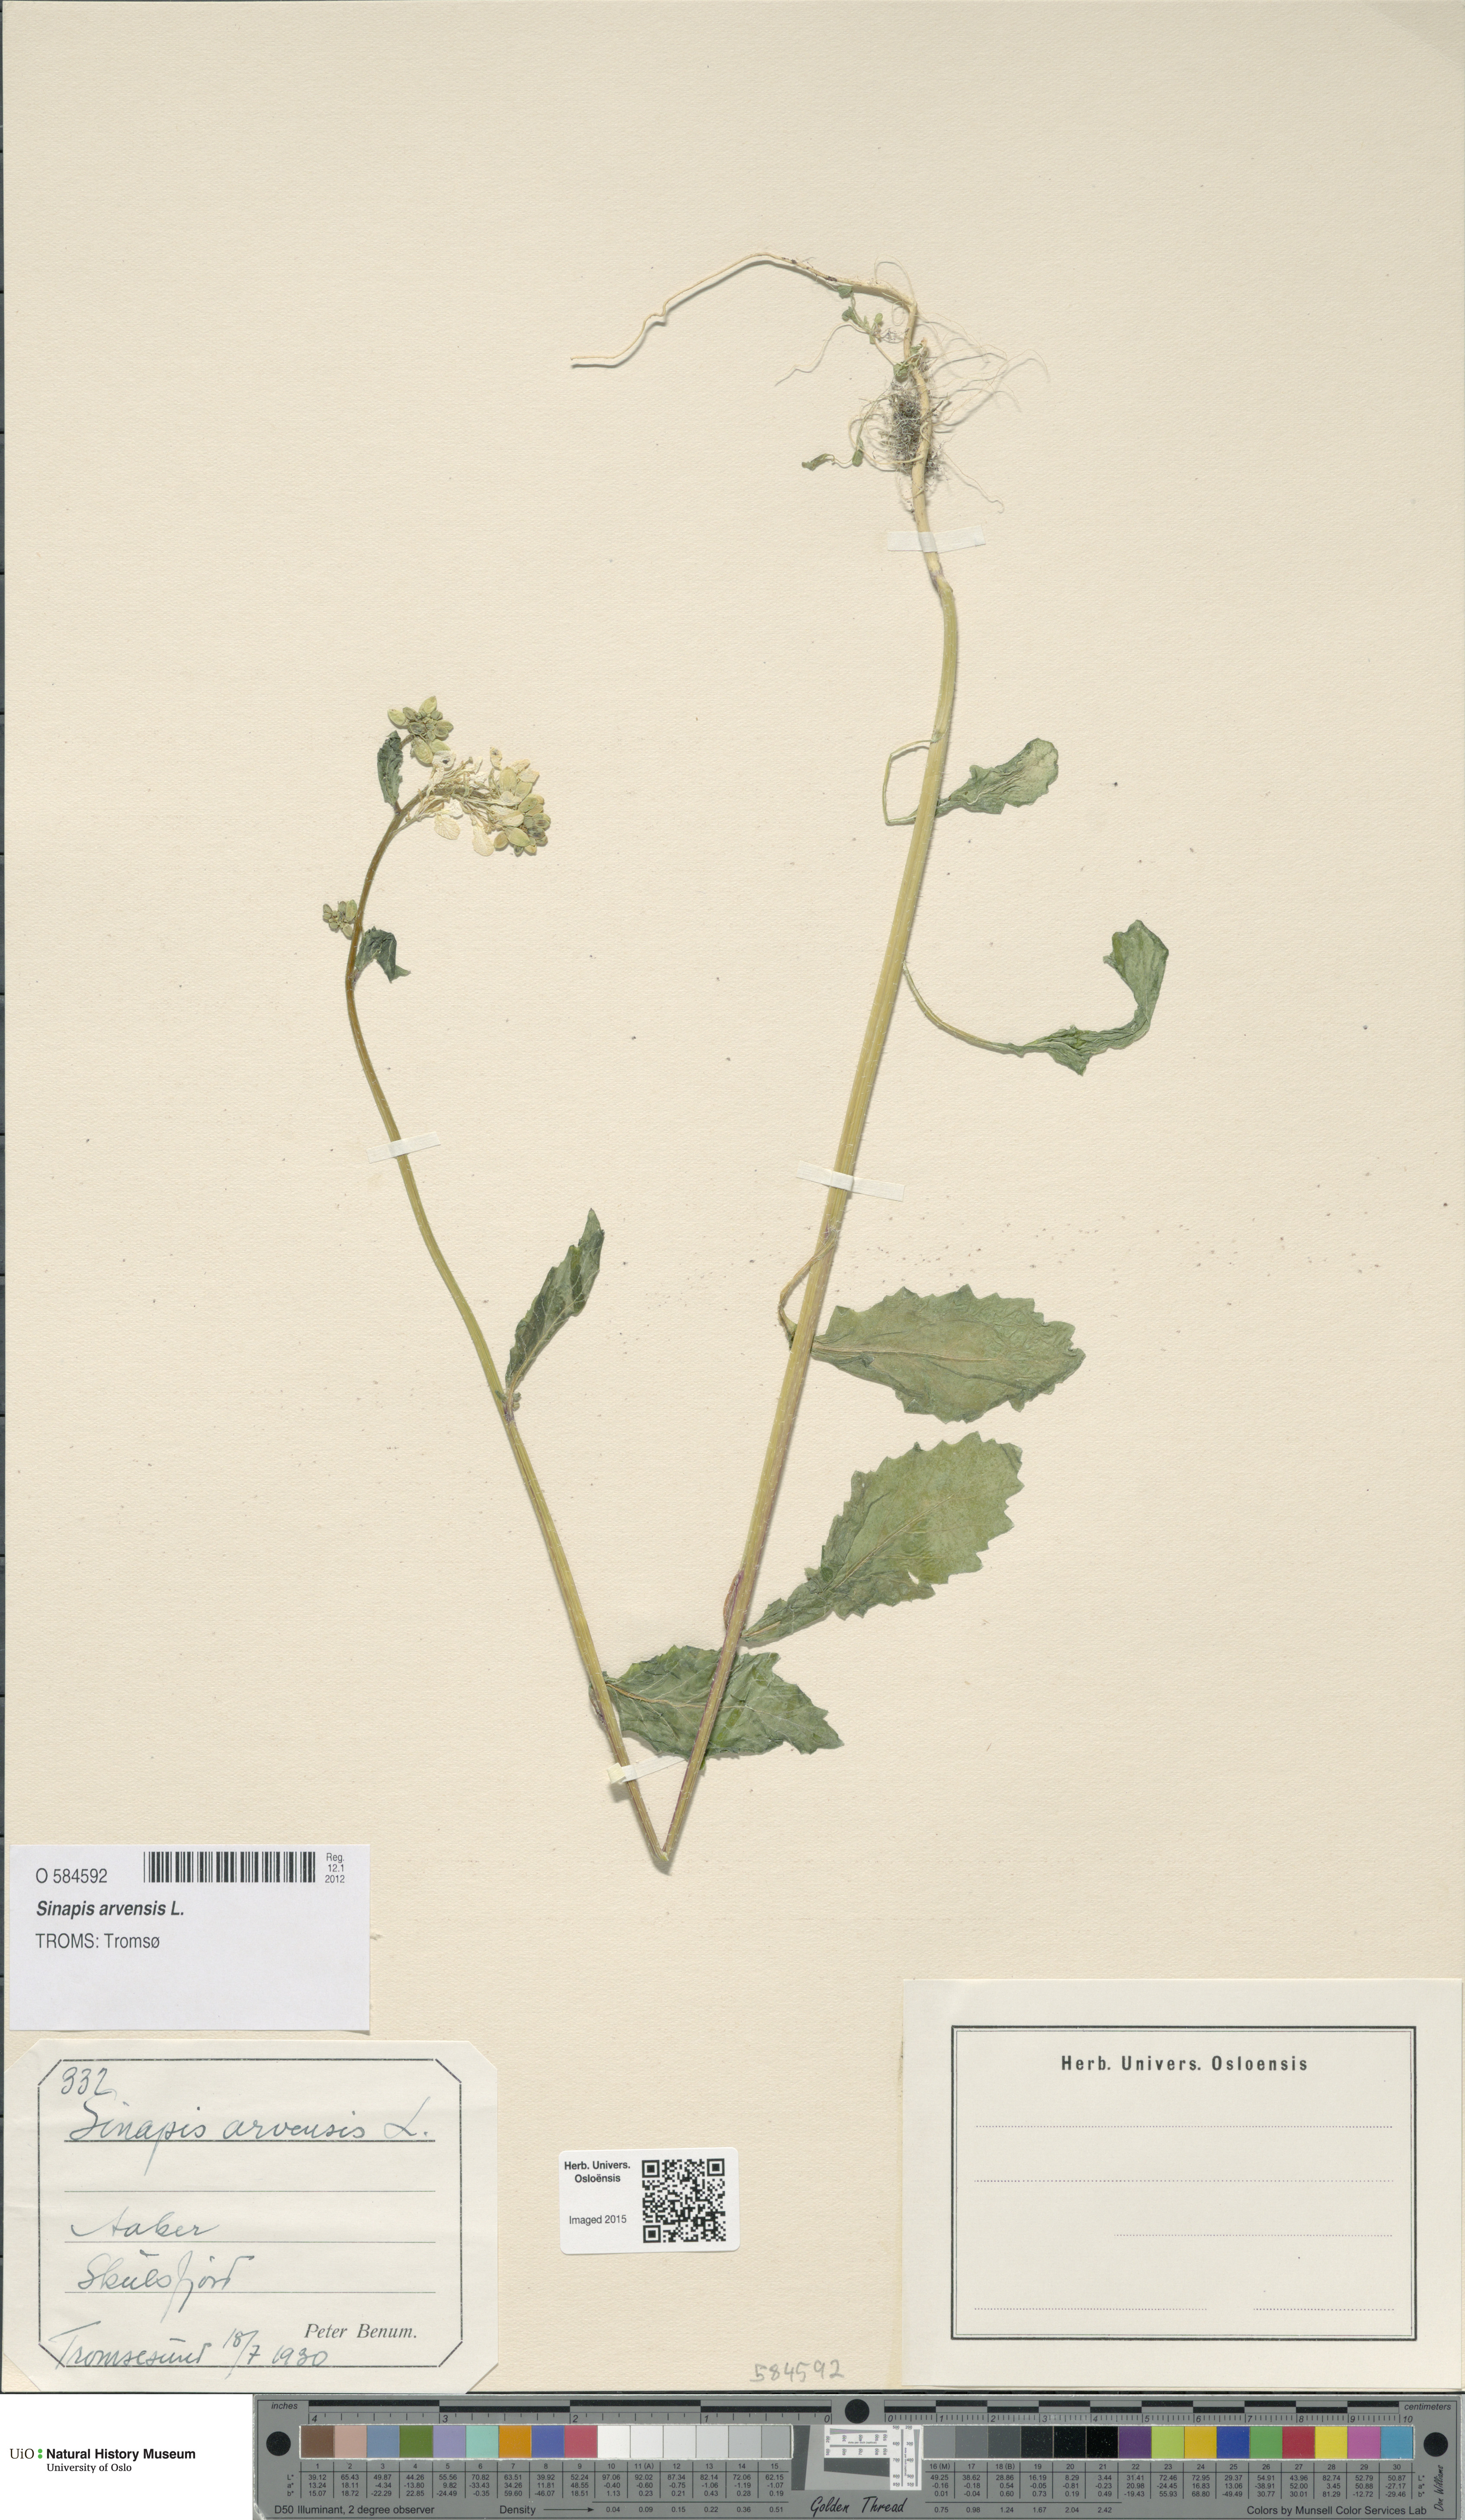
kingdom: Plantae
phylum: Tracheophyta
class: Magnoliopsida
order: Brassicales
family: Brassicaceae
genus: Sinapis
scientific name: Sinapis arvensis
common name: Charlock
